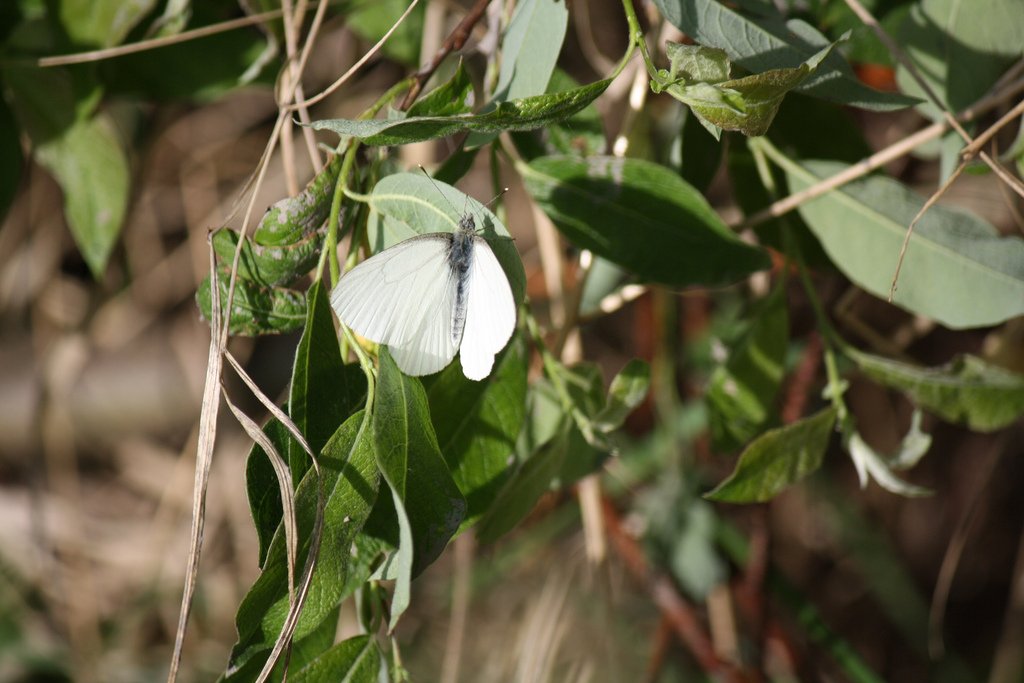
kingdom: Animalia
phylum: Arthropoda
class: Insecta
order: Lepidoptera
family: Pieridae
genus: Pieris
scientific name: Pieris oleracea
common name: Mustard White
